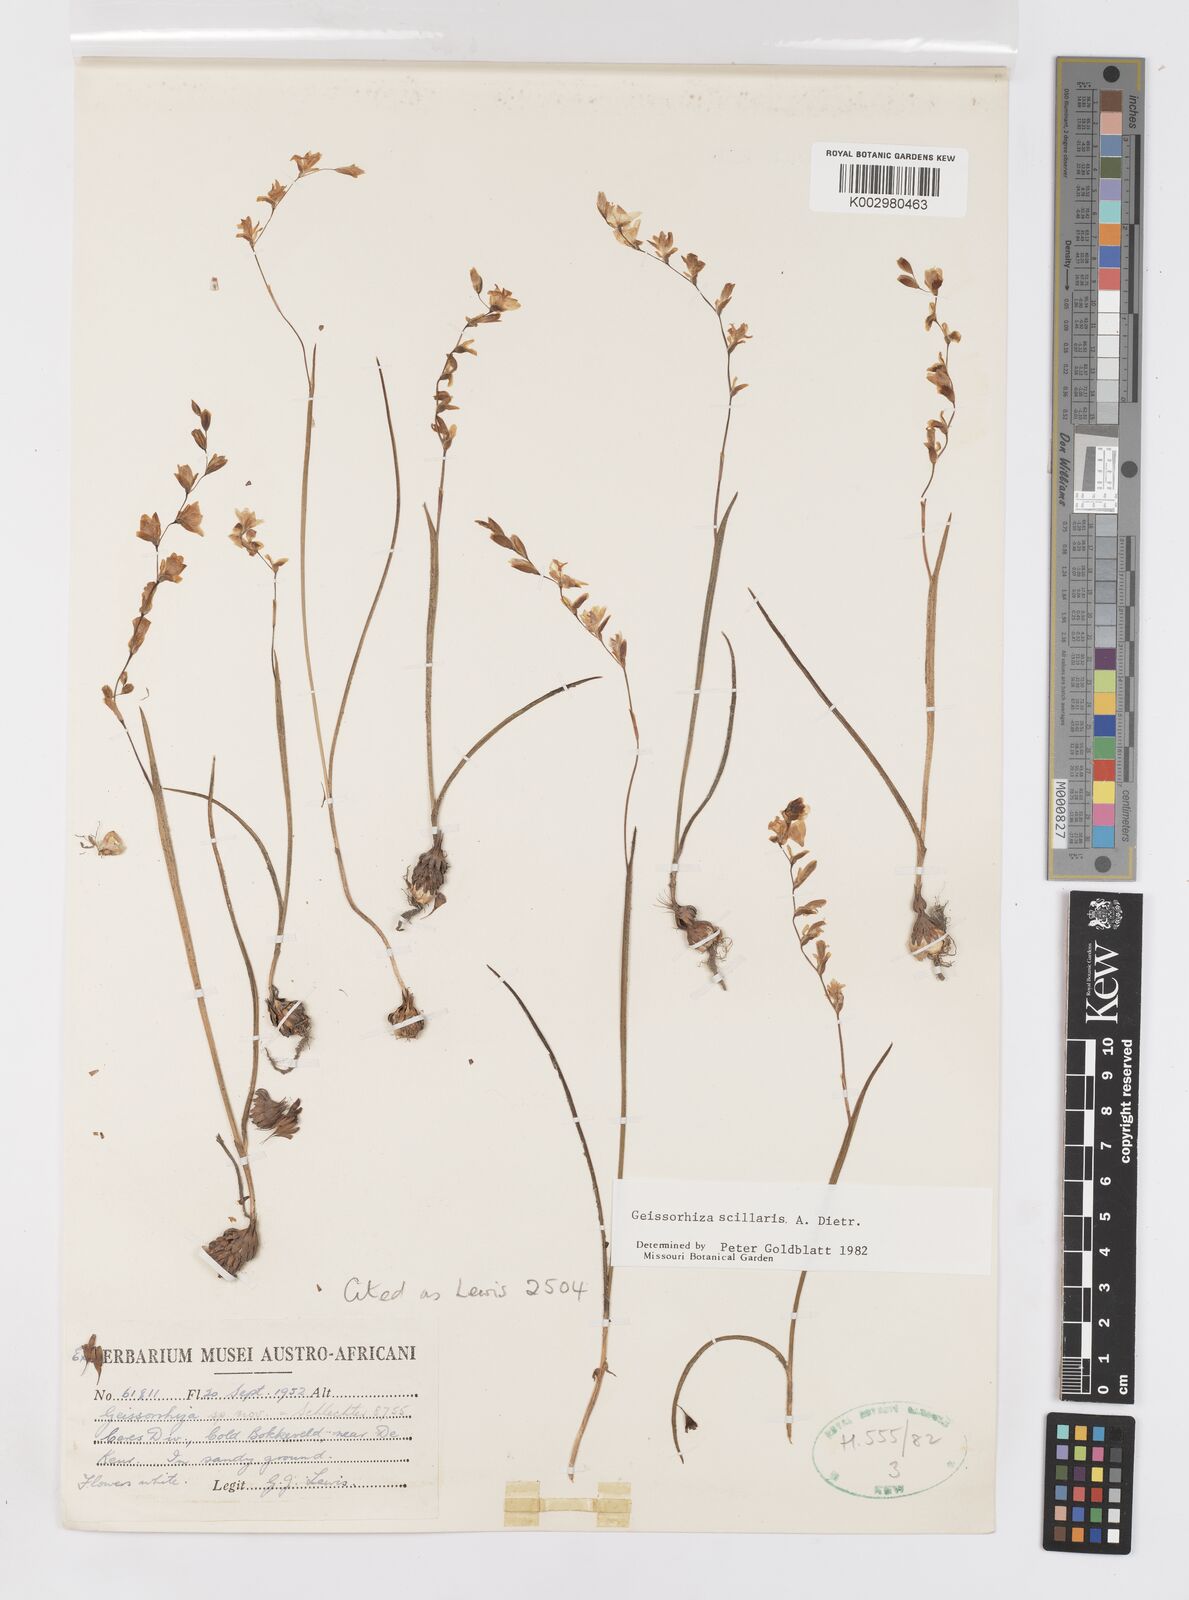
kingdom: Plantae
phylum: Tracheophyta
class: Liliopsida
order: Asparagales
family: Iridaceae
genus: Geissorhiza
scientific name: Geissorhiza scillaris
